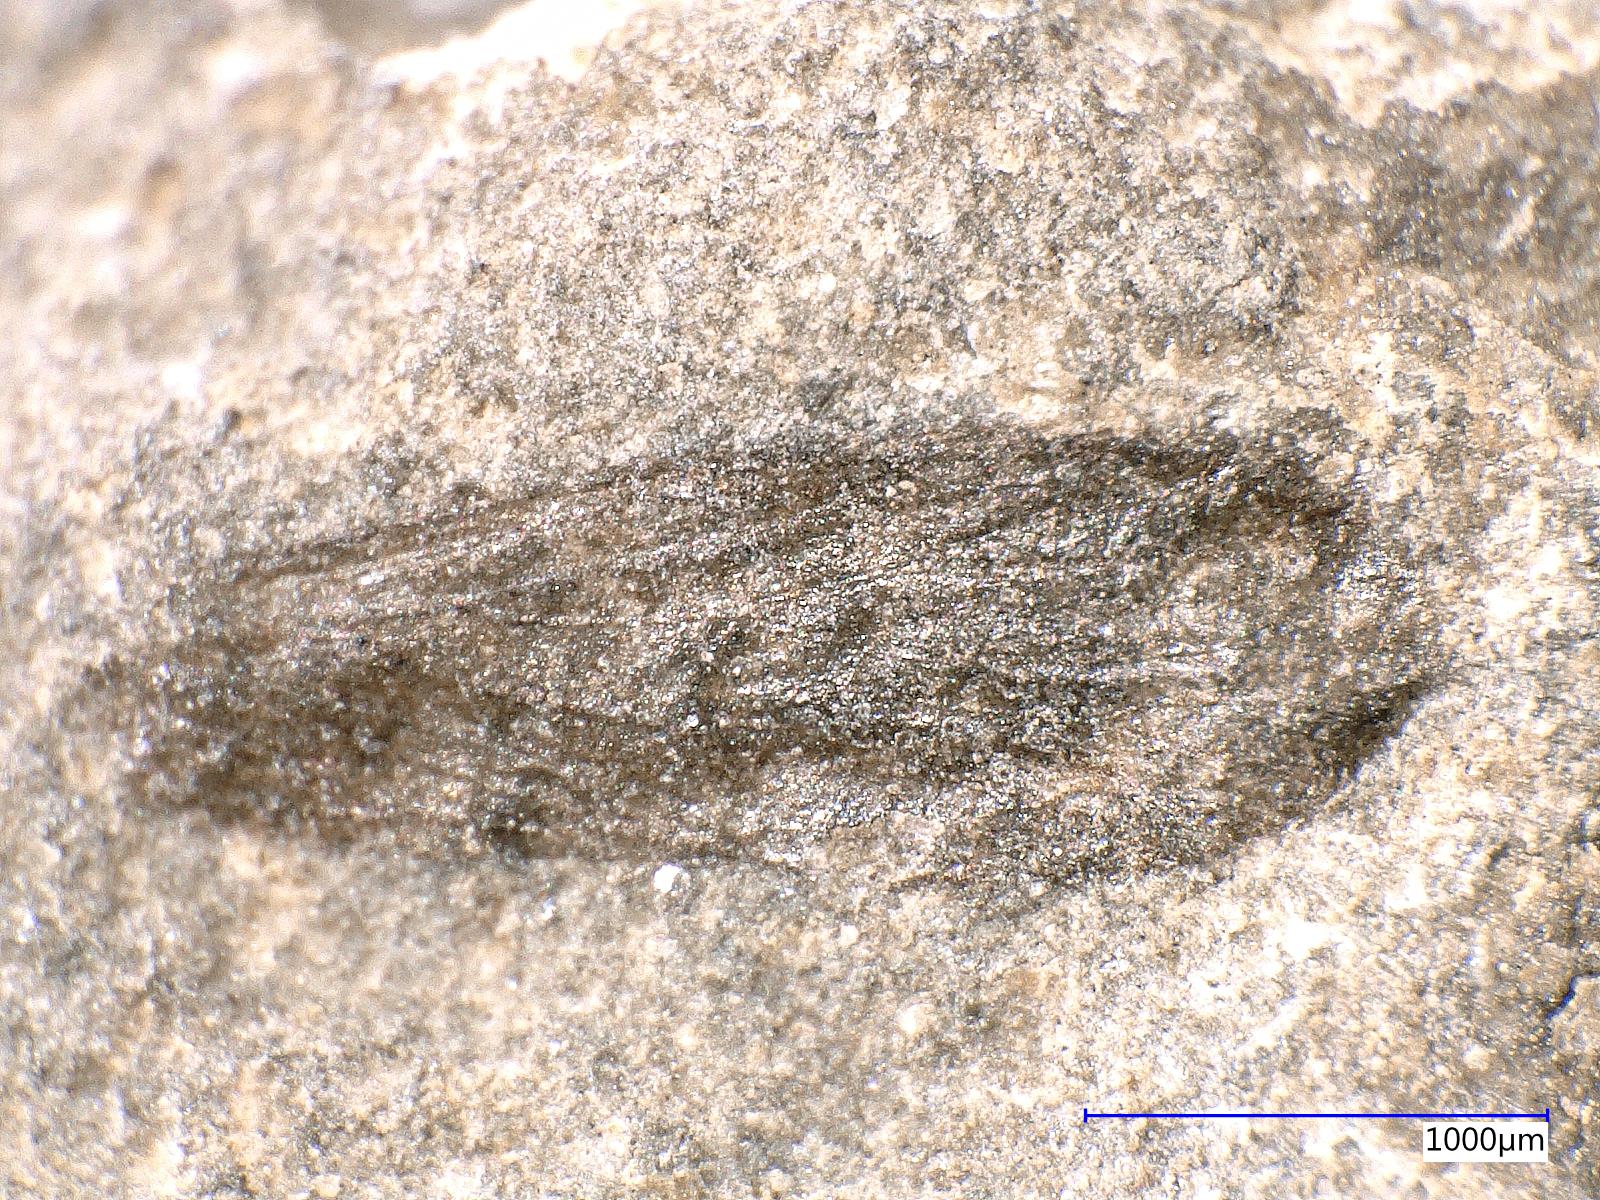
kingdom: Animalia
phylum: Arthropoda
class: Insecta
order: Trichoptera
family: Necrotauliidae
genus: Necrotaulius
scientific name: Necrotaulius Orthophlebia parvula
